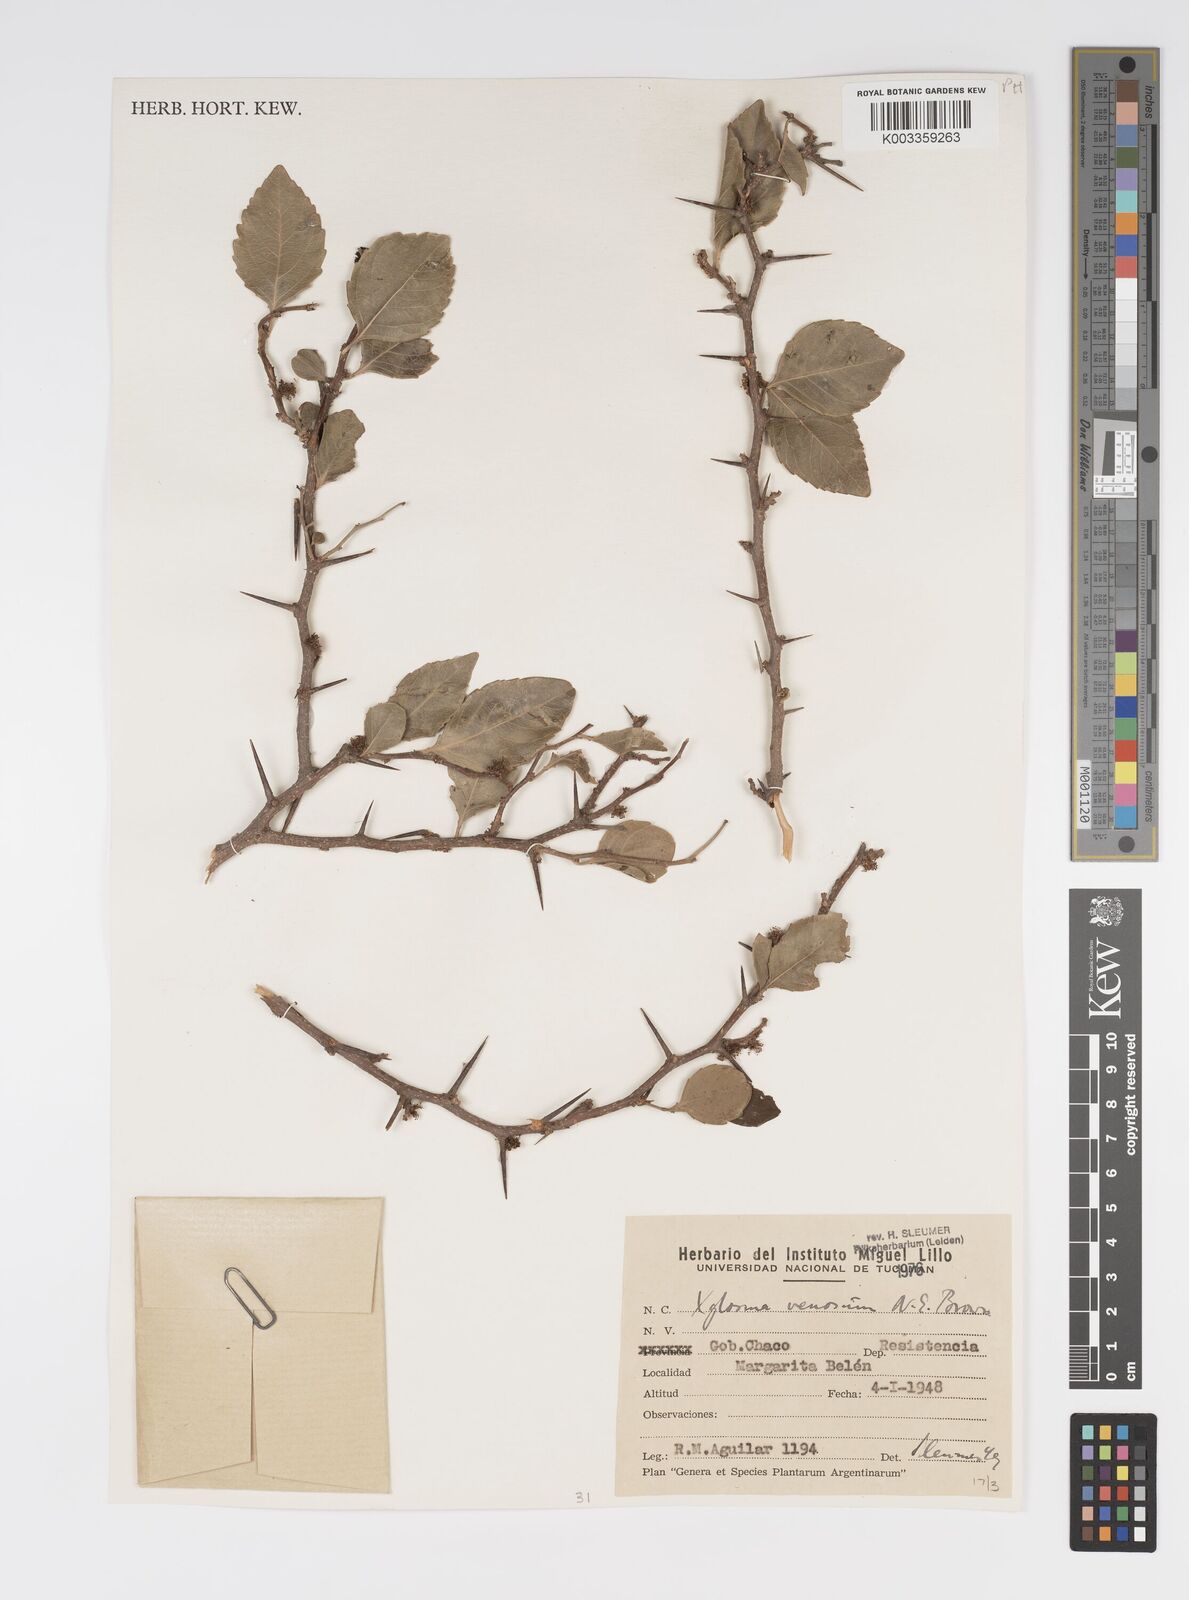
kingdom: Plantae
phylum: Tracheophyta
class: Magnoliopsida
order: Malpighiales
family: Salicaceae
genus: Xylosma
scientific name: Xylosma venosa
